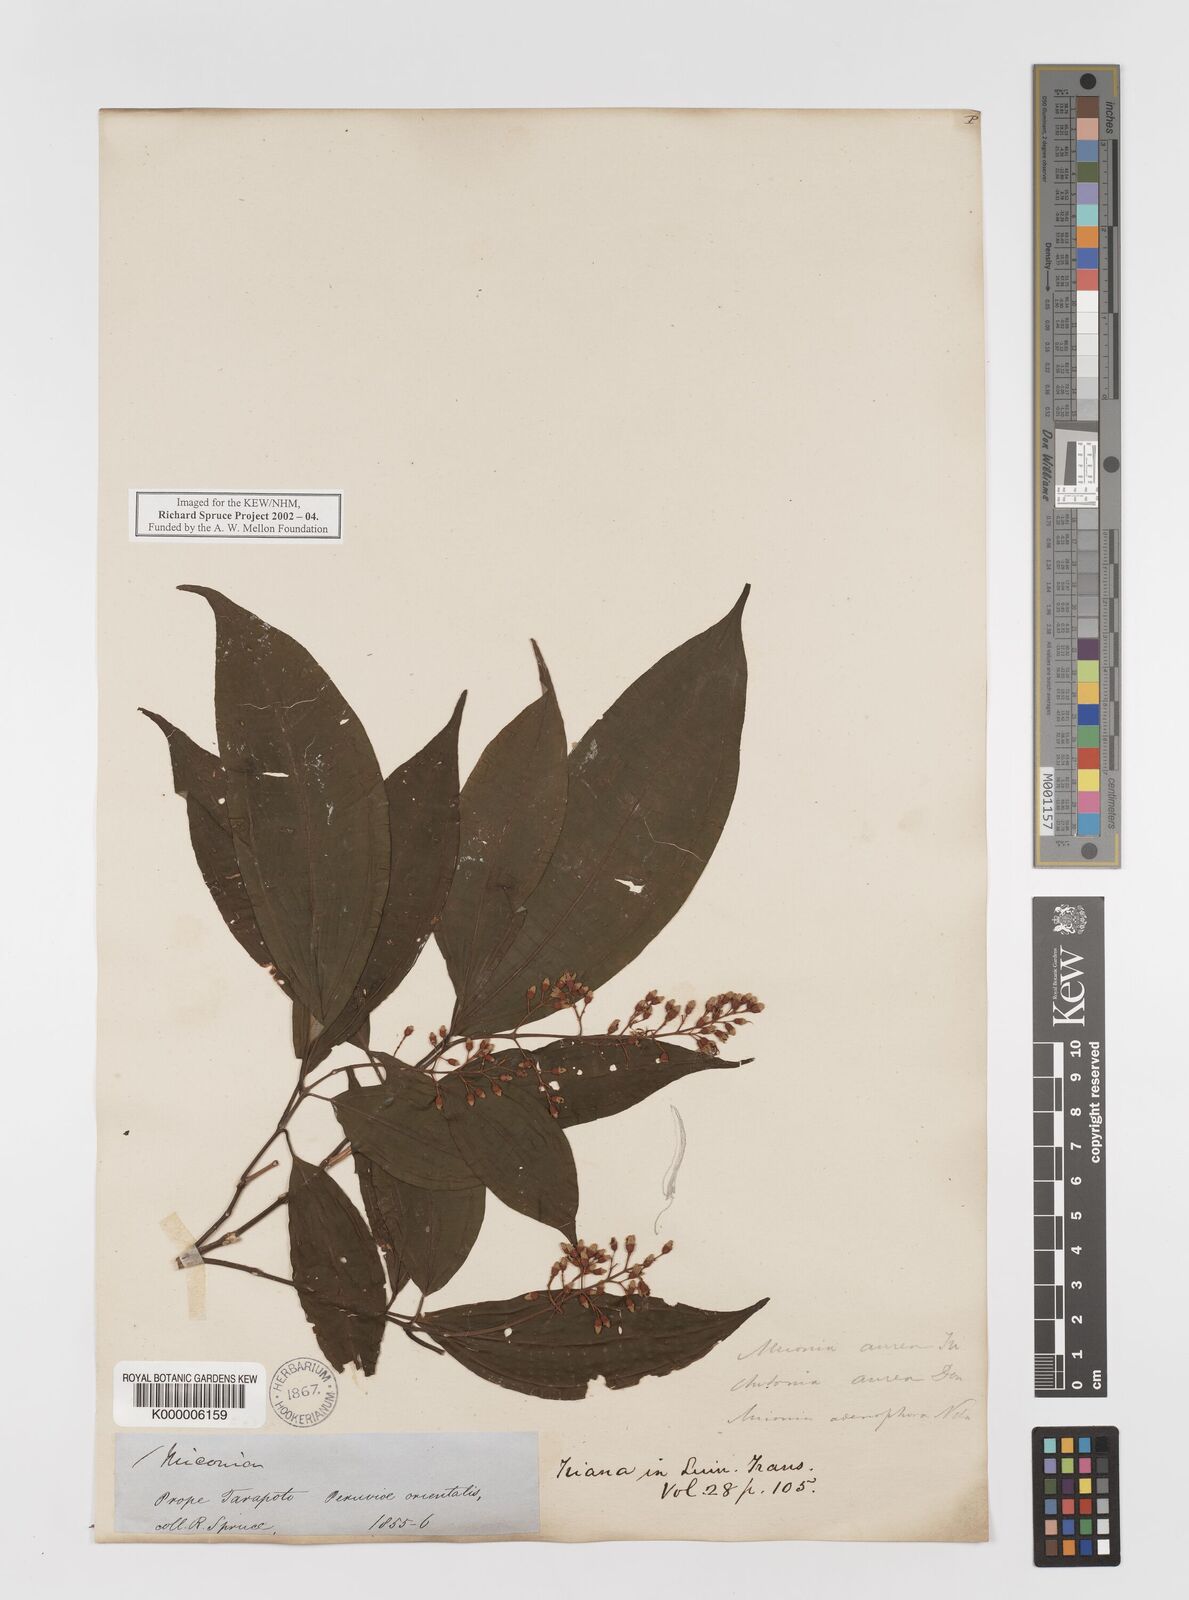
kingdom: Plantae
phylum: Tracheophyta
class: Magnoliopsida
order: Myrtales
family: Melastomataceae
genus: Miconia
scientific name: Miconia
